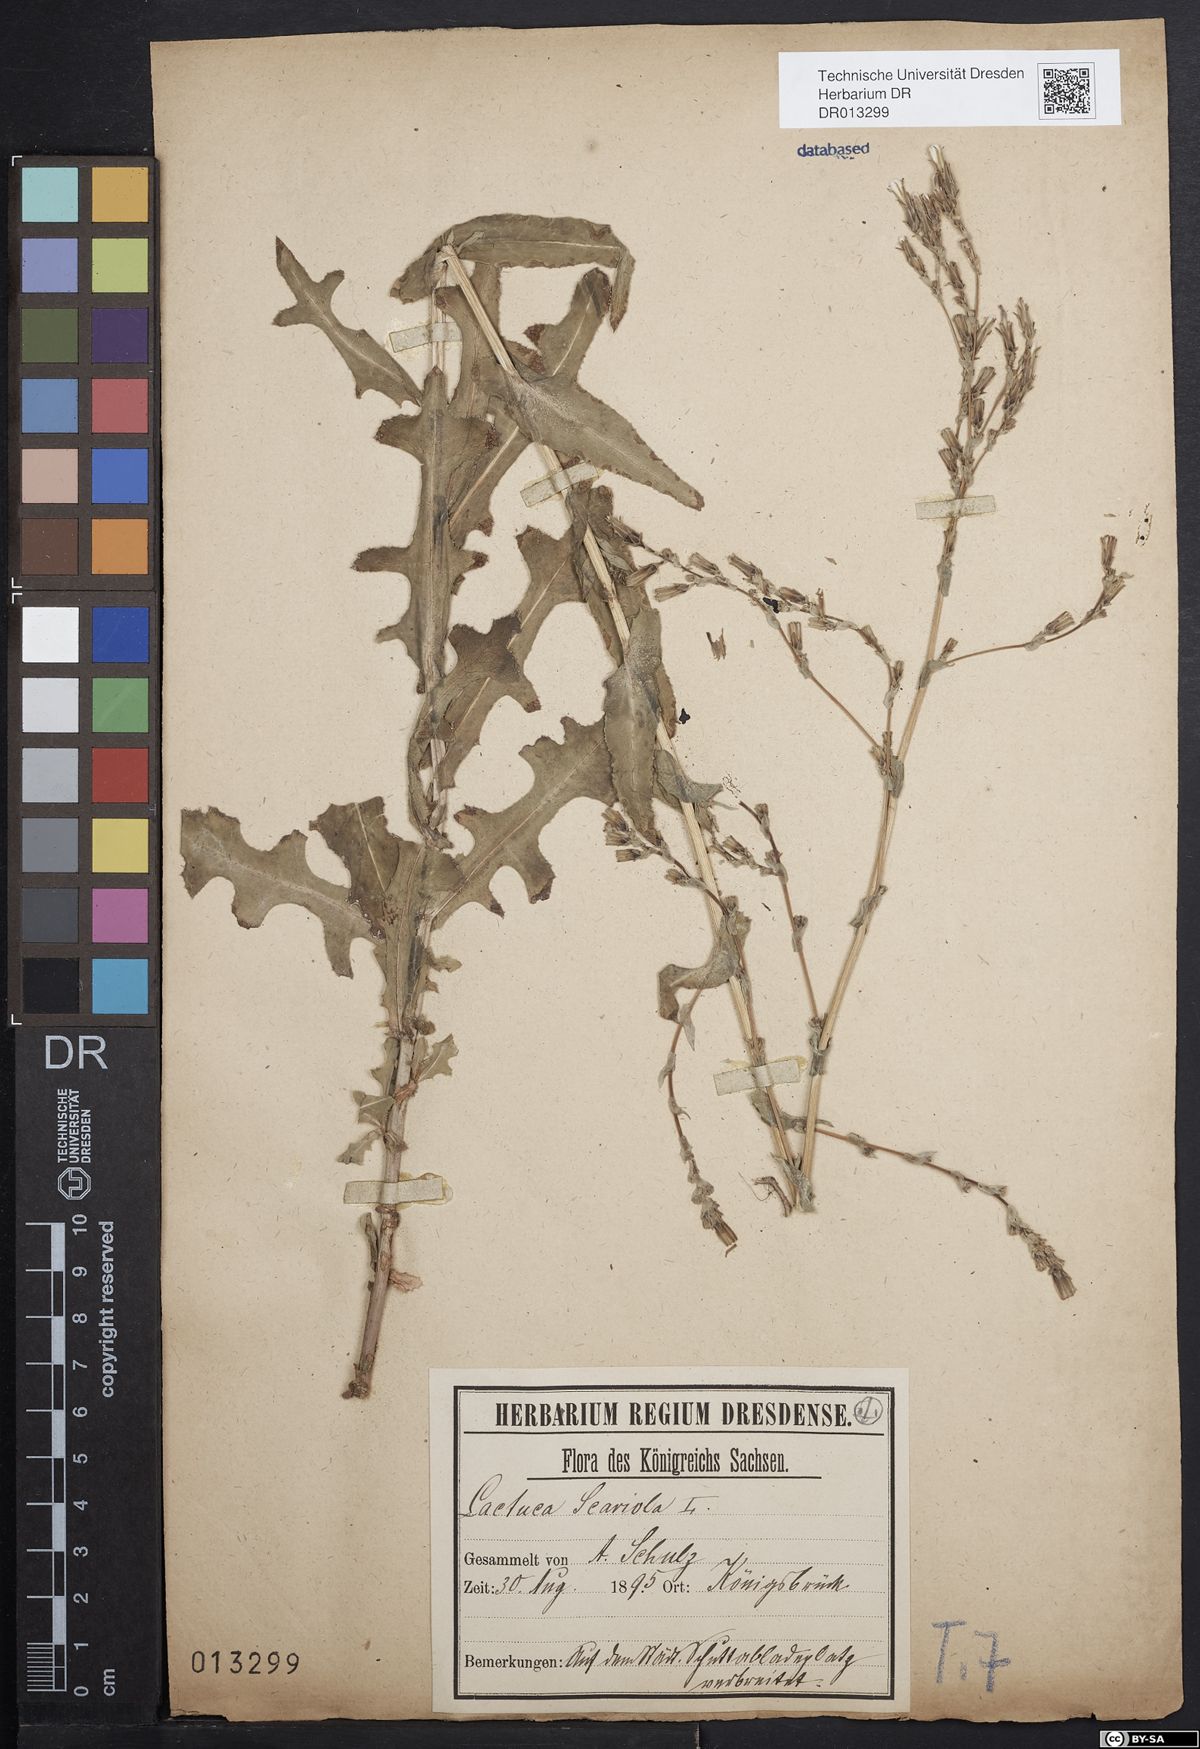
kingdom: Plantae
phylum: Tracheophyta
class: Magnoliopsida
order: Asterales
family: Asteraceae
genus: Lactuca
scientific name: Lactuca serriola
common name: Prickly lettuce
